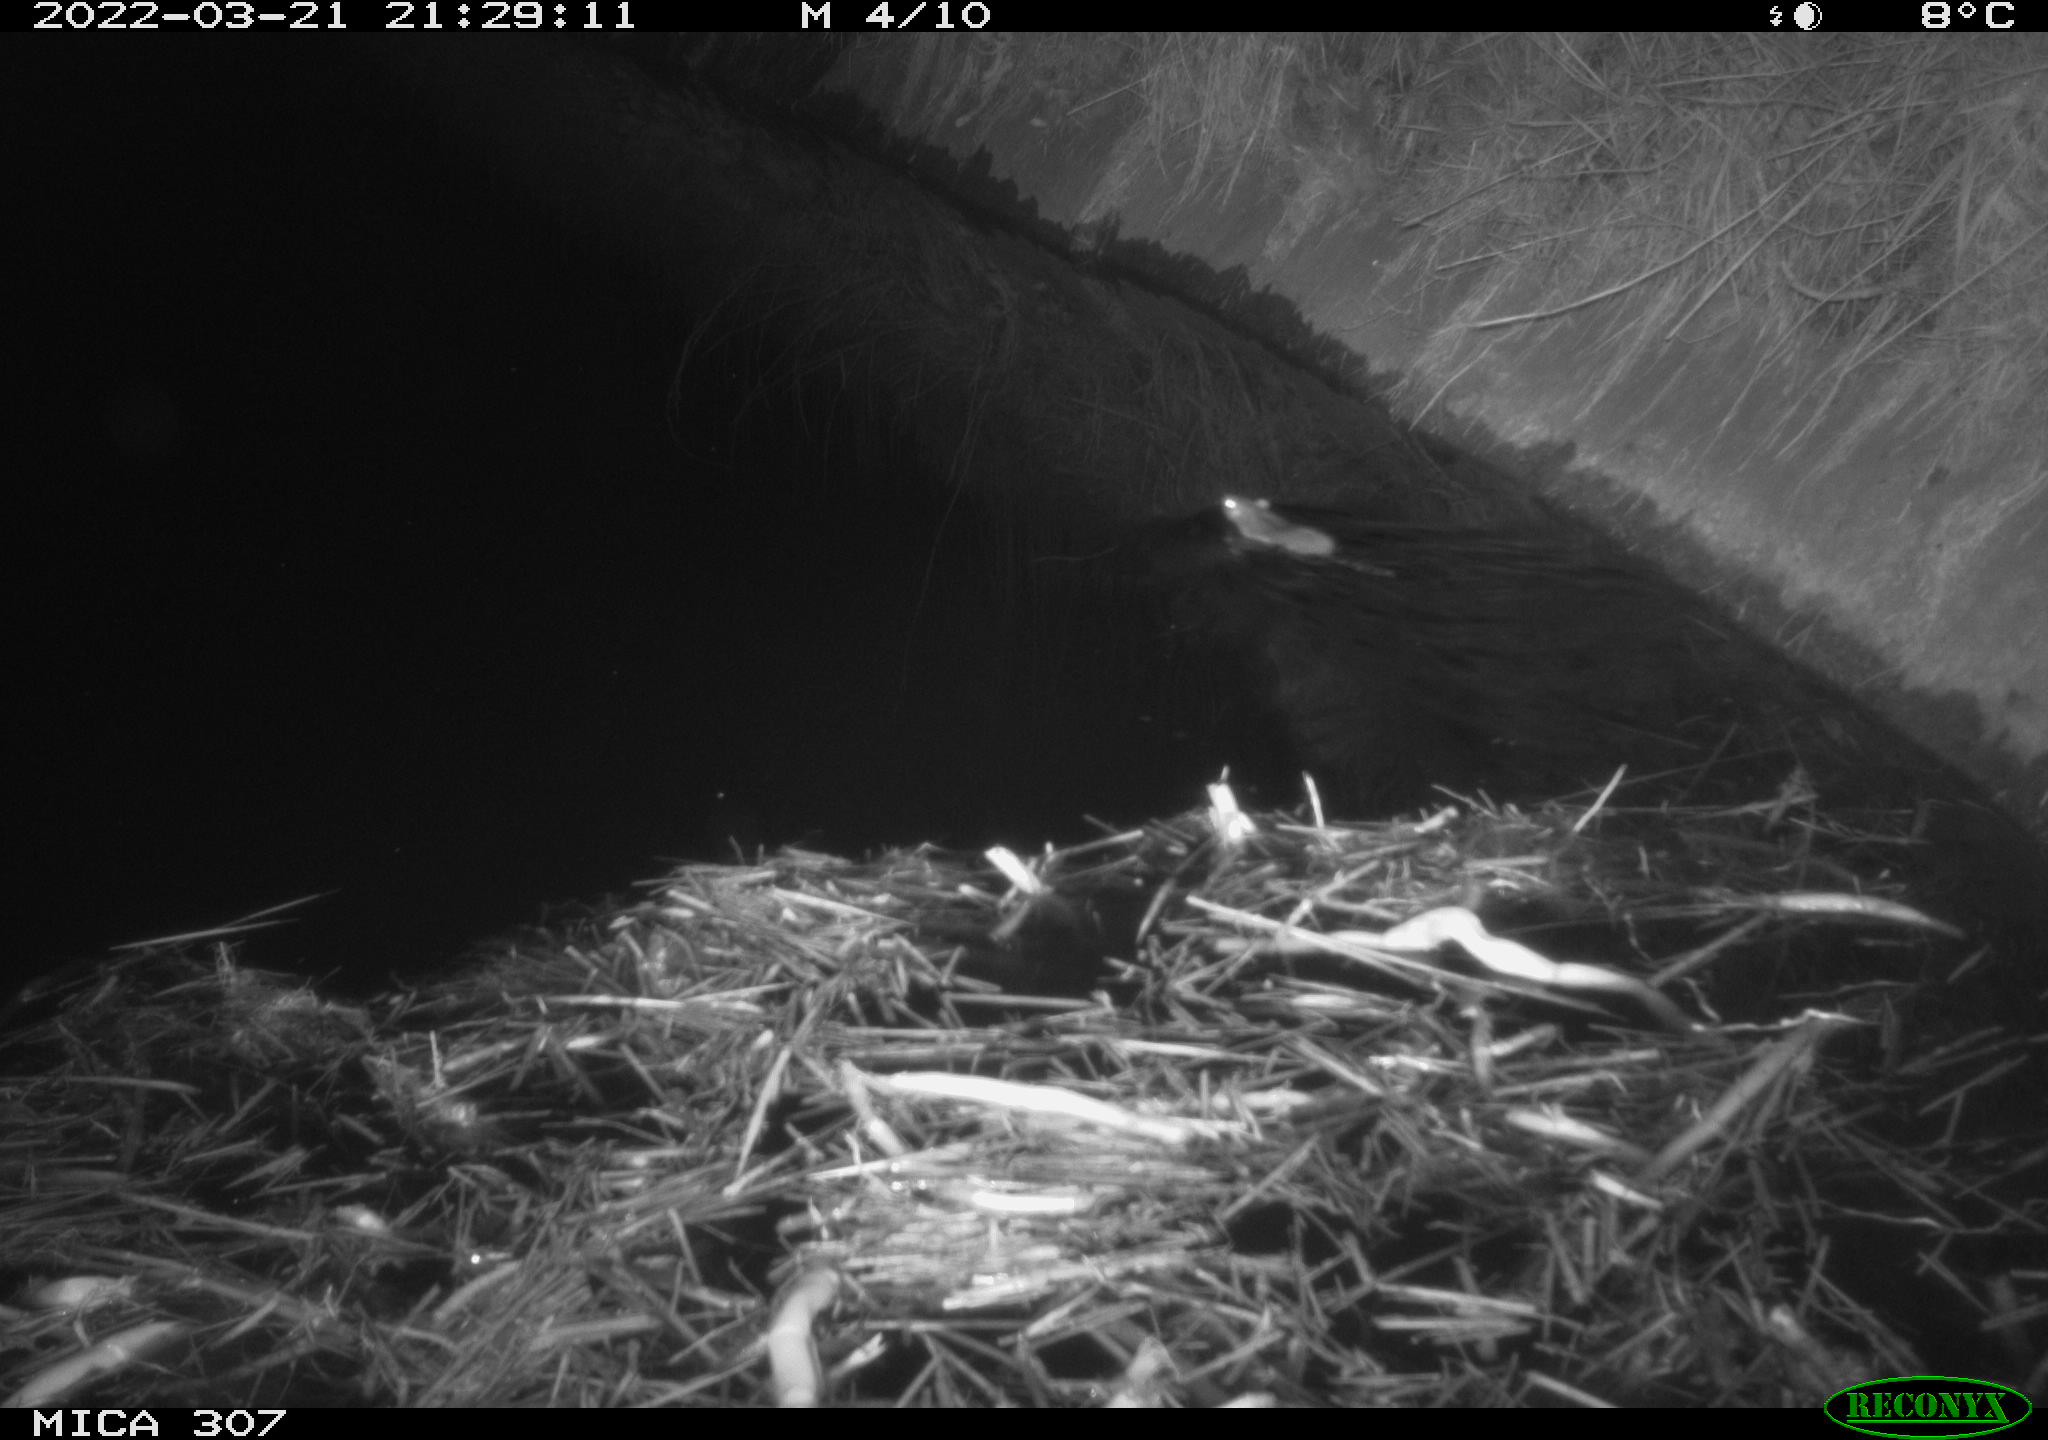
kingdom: Animalia
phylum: Chordata
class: Mammalia
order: Rodentia
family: Muridae
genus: Rattus
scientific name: Rattus norvegicus
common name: Brown rat
